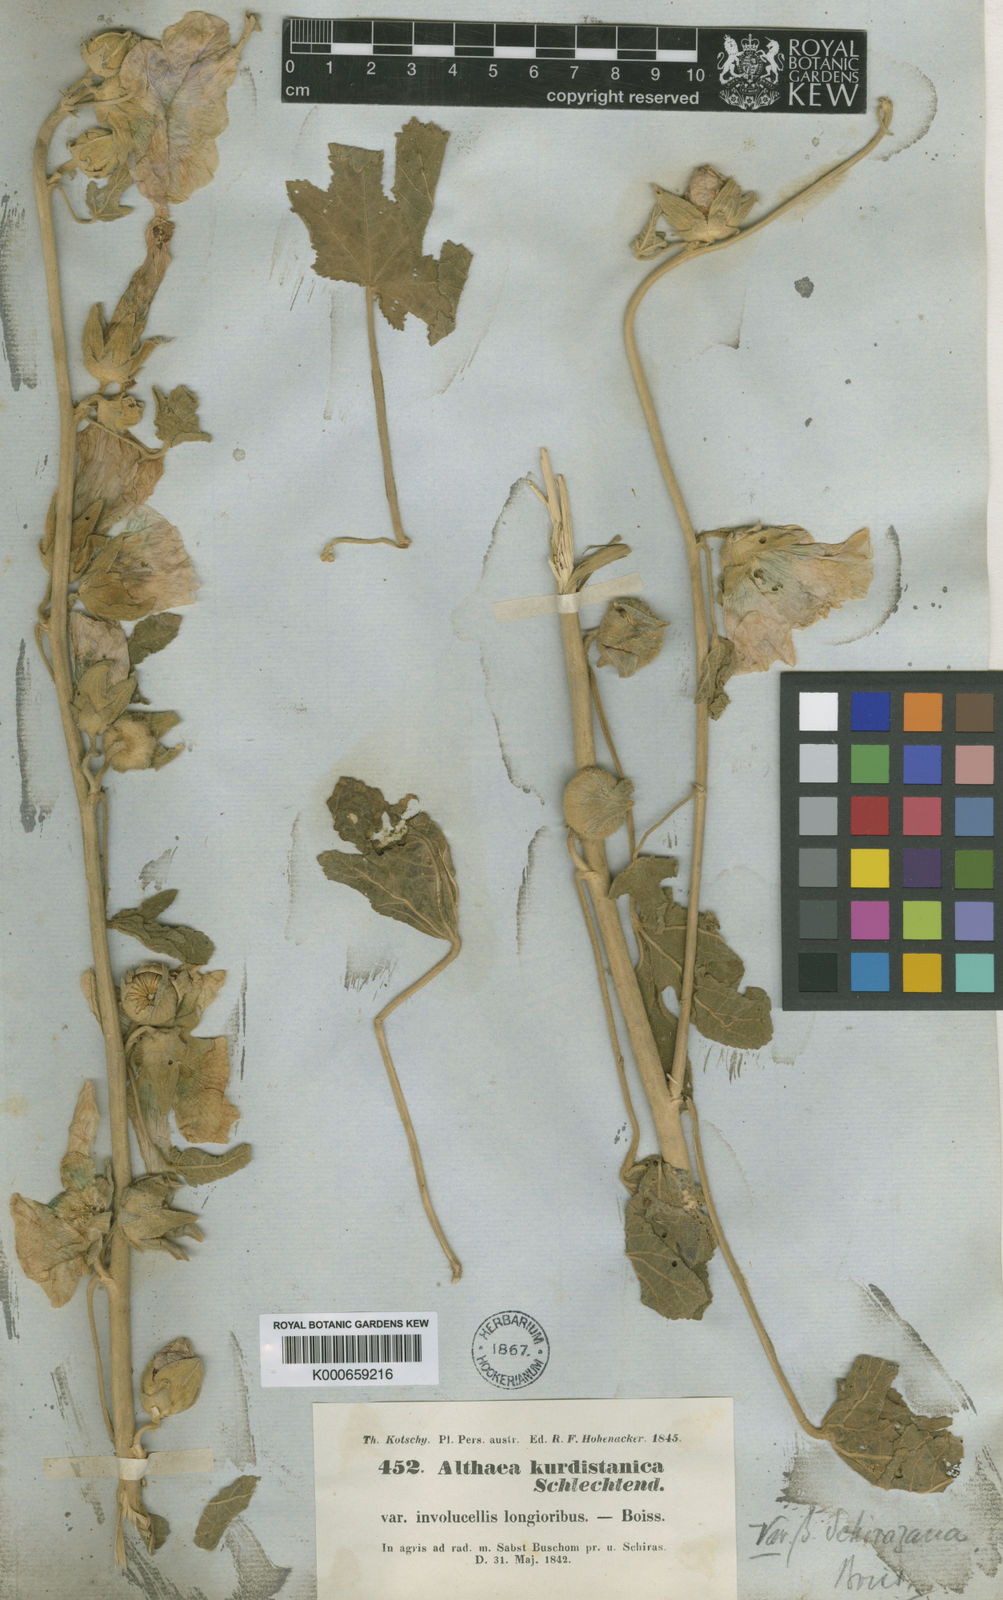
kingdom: Plantae
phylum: Tracheophyta
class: Magnoliopsida
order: Malvales
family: Malvaceae
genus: Alcea
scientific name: Alcea kurdica
